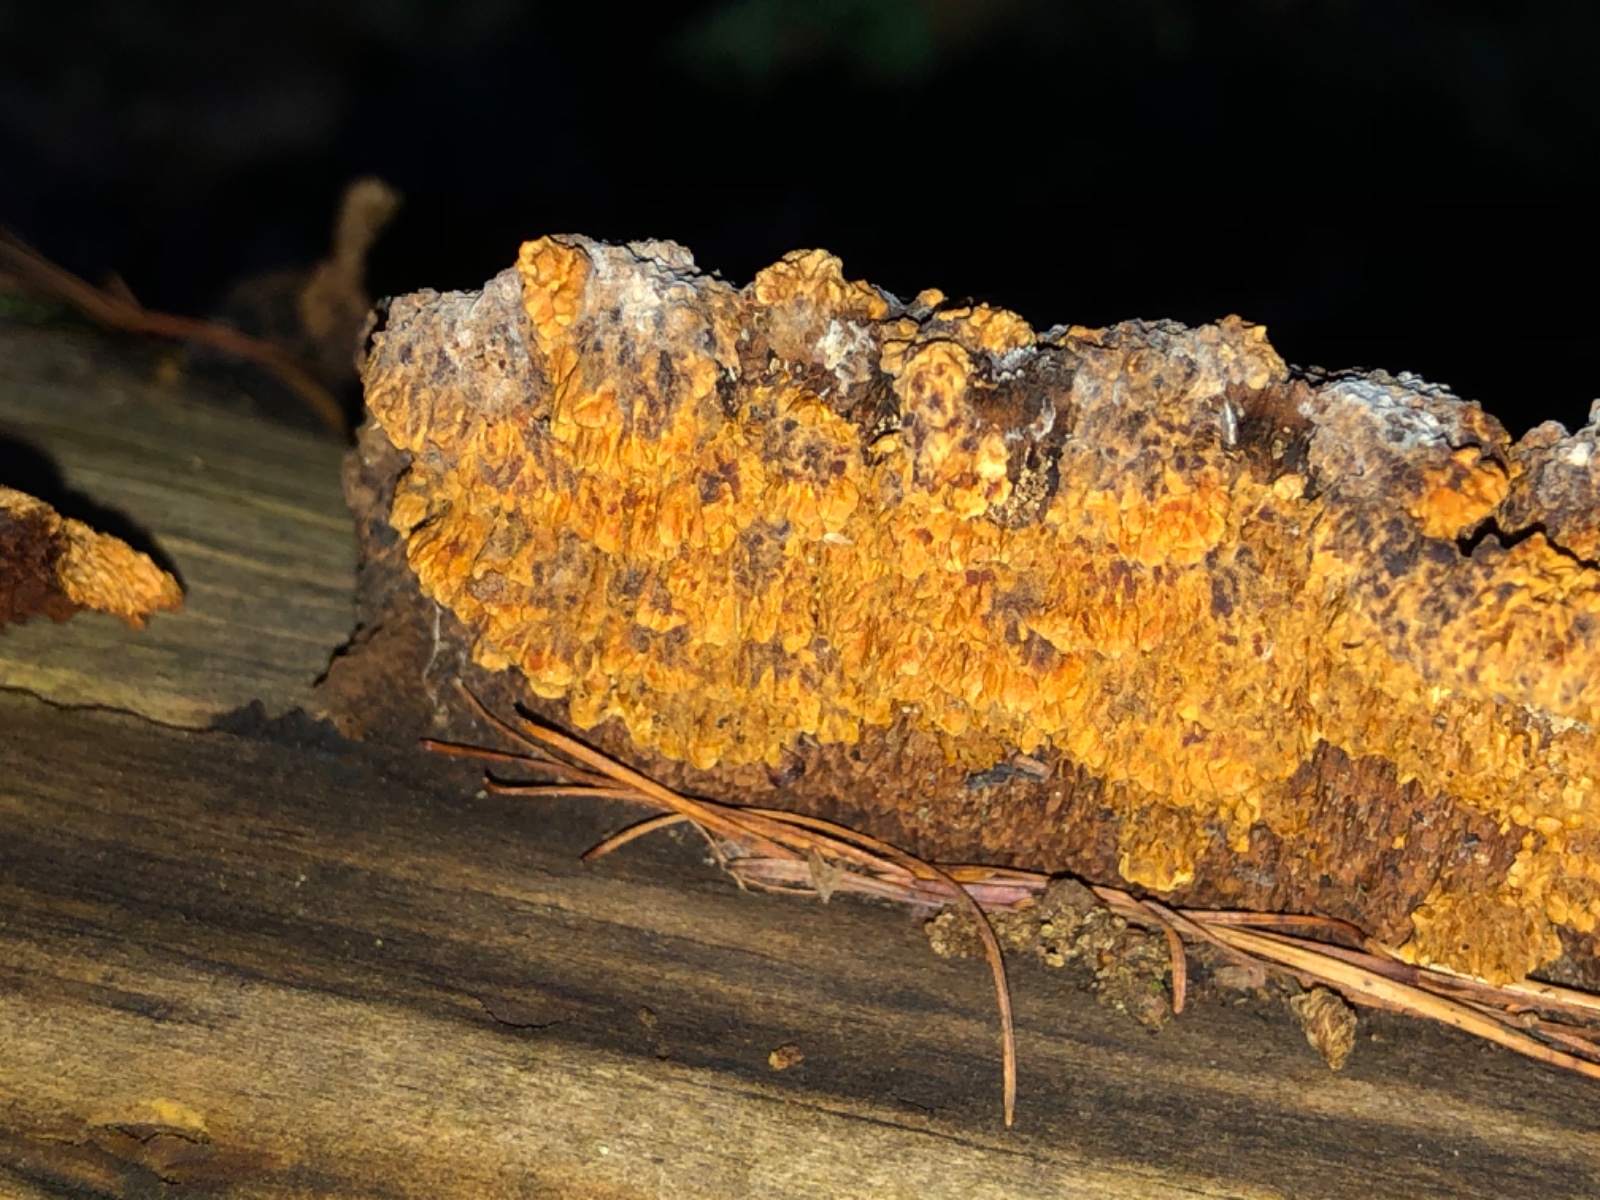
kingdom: Fungi
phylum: Basidiomycota
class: Agaricomycetes
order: Gloeophyllales
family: Gloeophyllaceae
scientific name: Gloeophyllaceae
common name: korkhatfamilien
